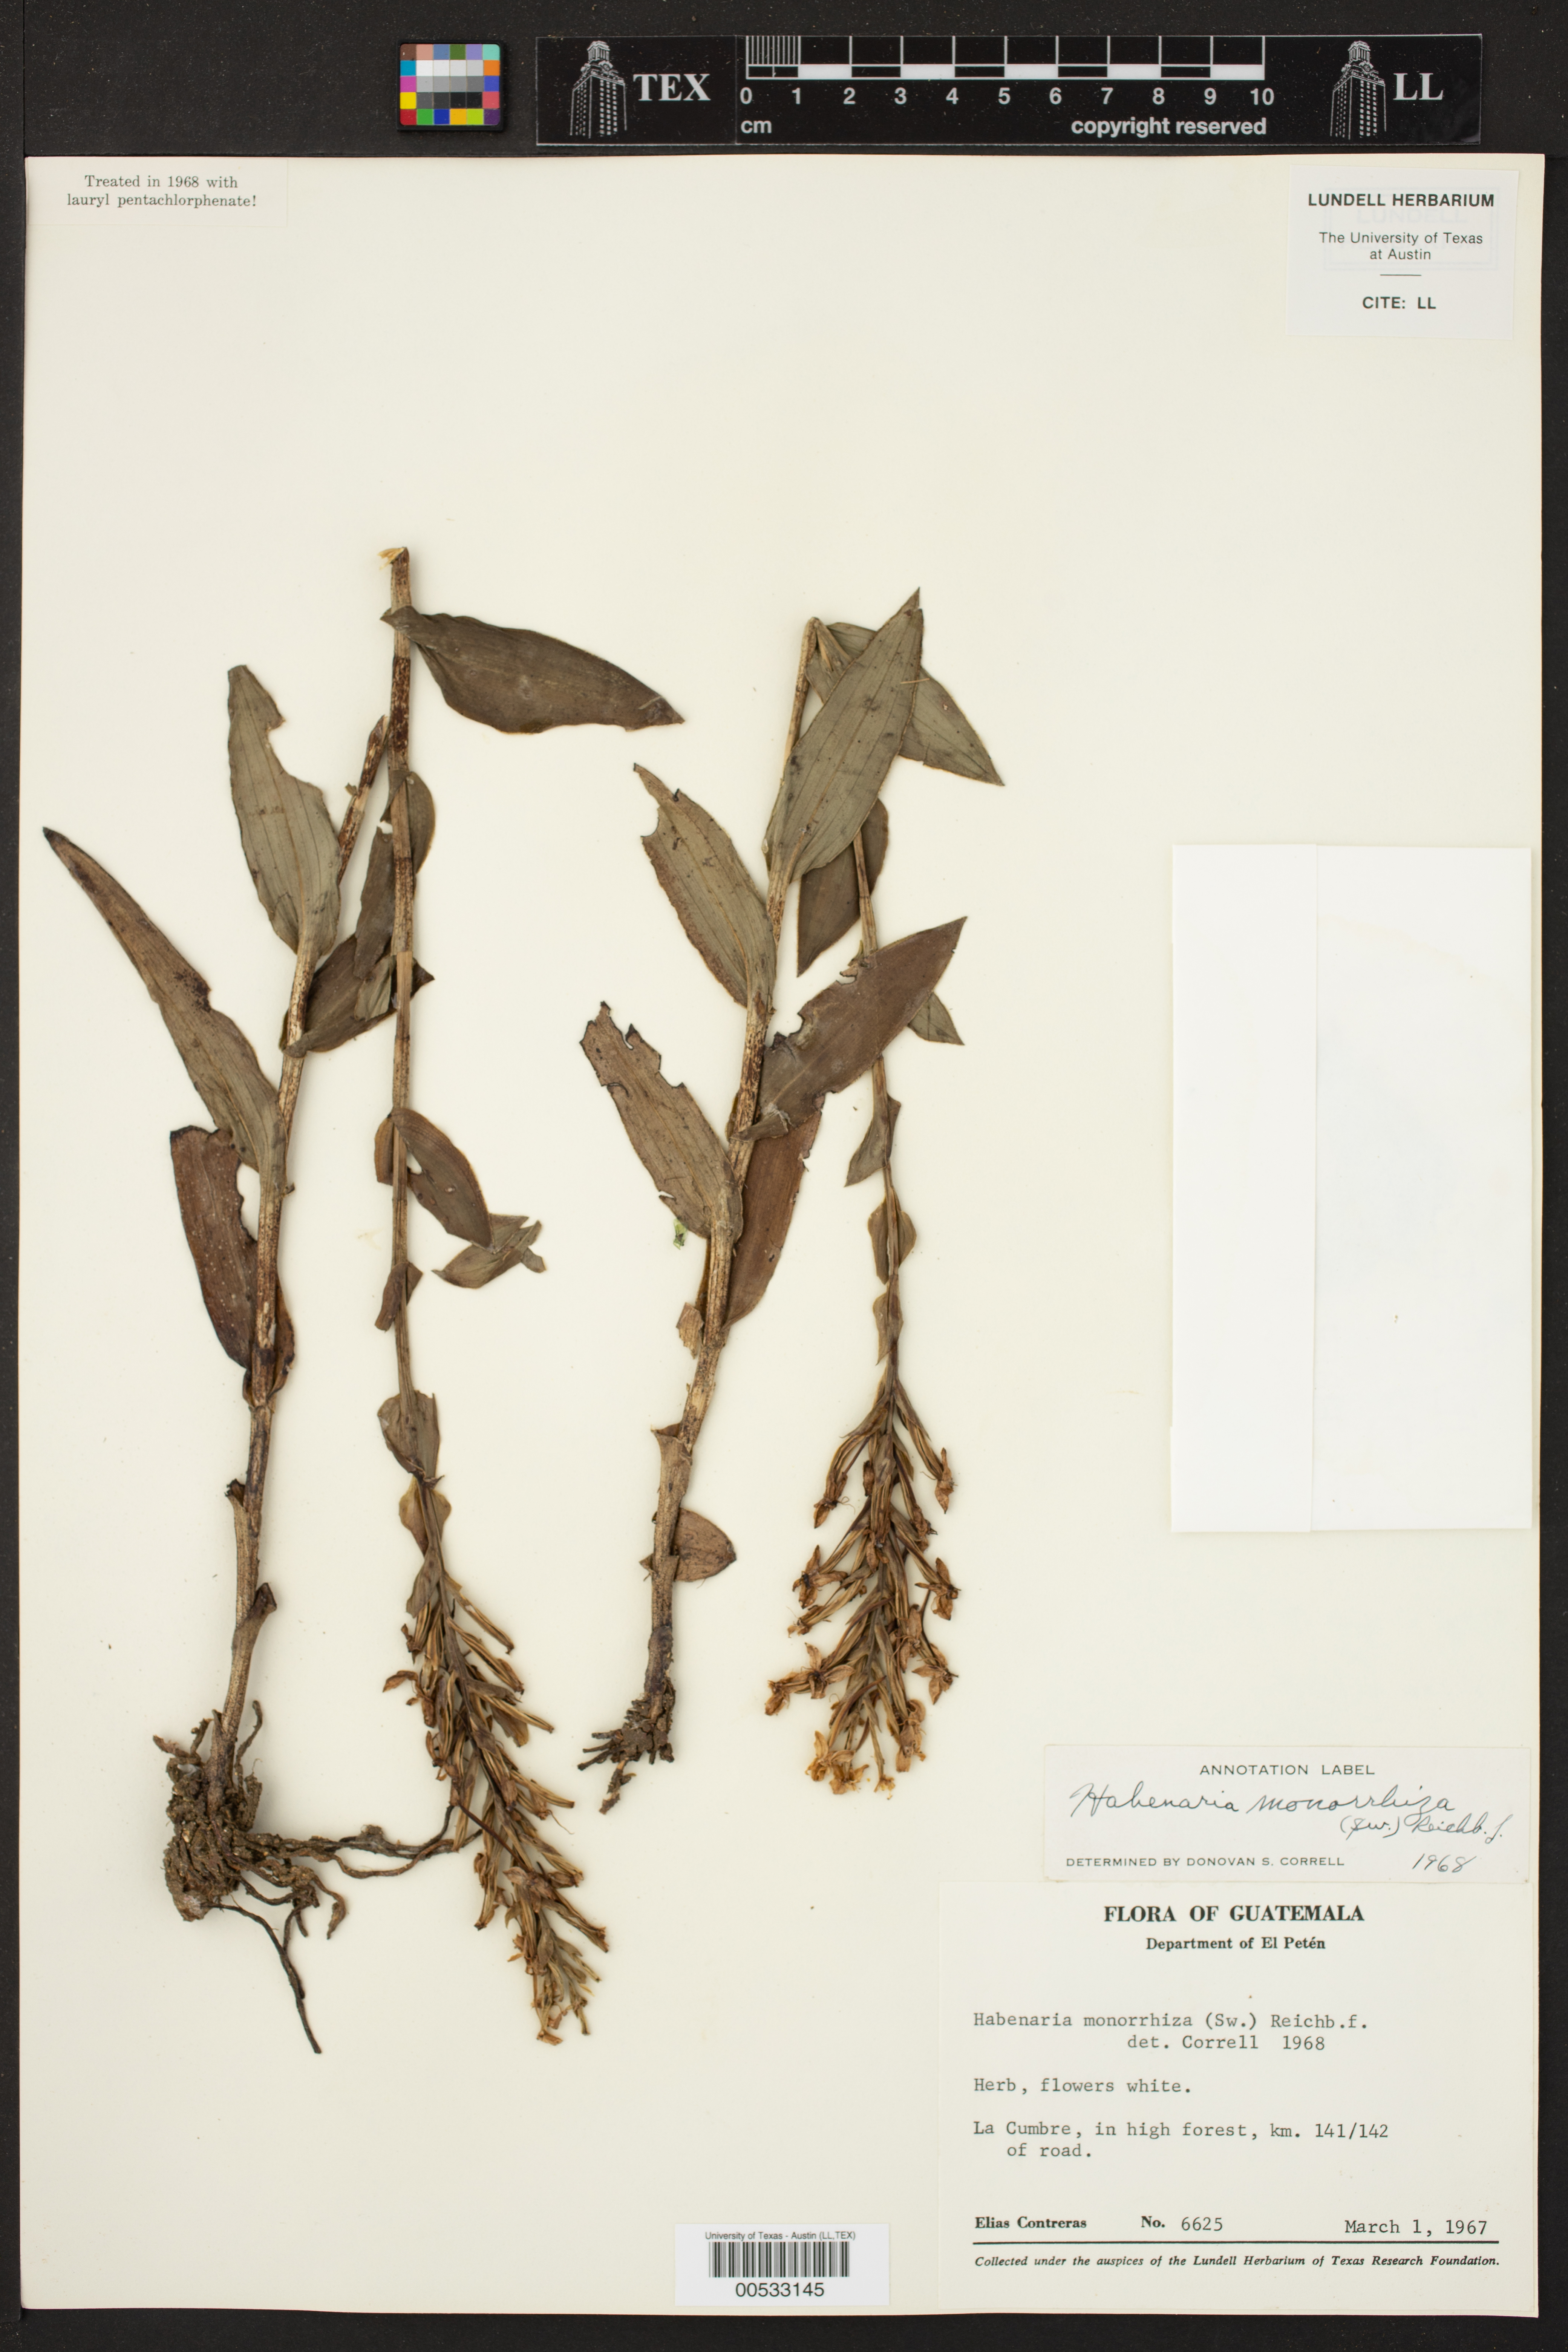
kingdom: Plantae
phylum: Tracheophyta
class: Liliopsida
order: Asparagales
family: Orchidaceae
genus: Habenaria
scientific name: Habenaria monorrhiza
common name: Tropical bog orchid
